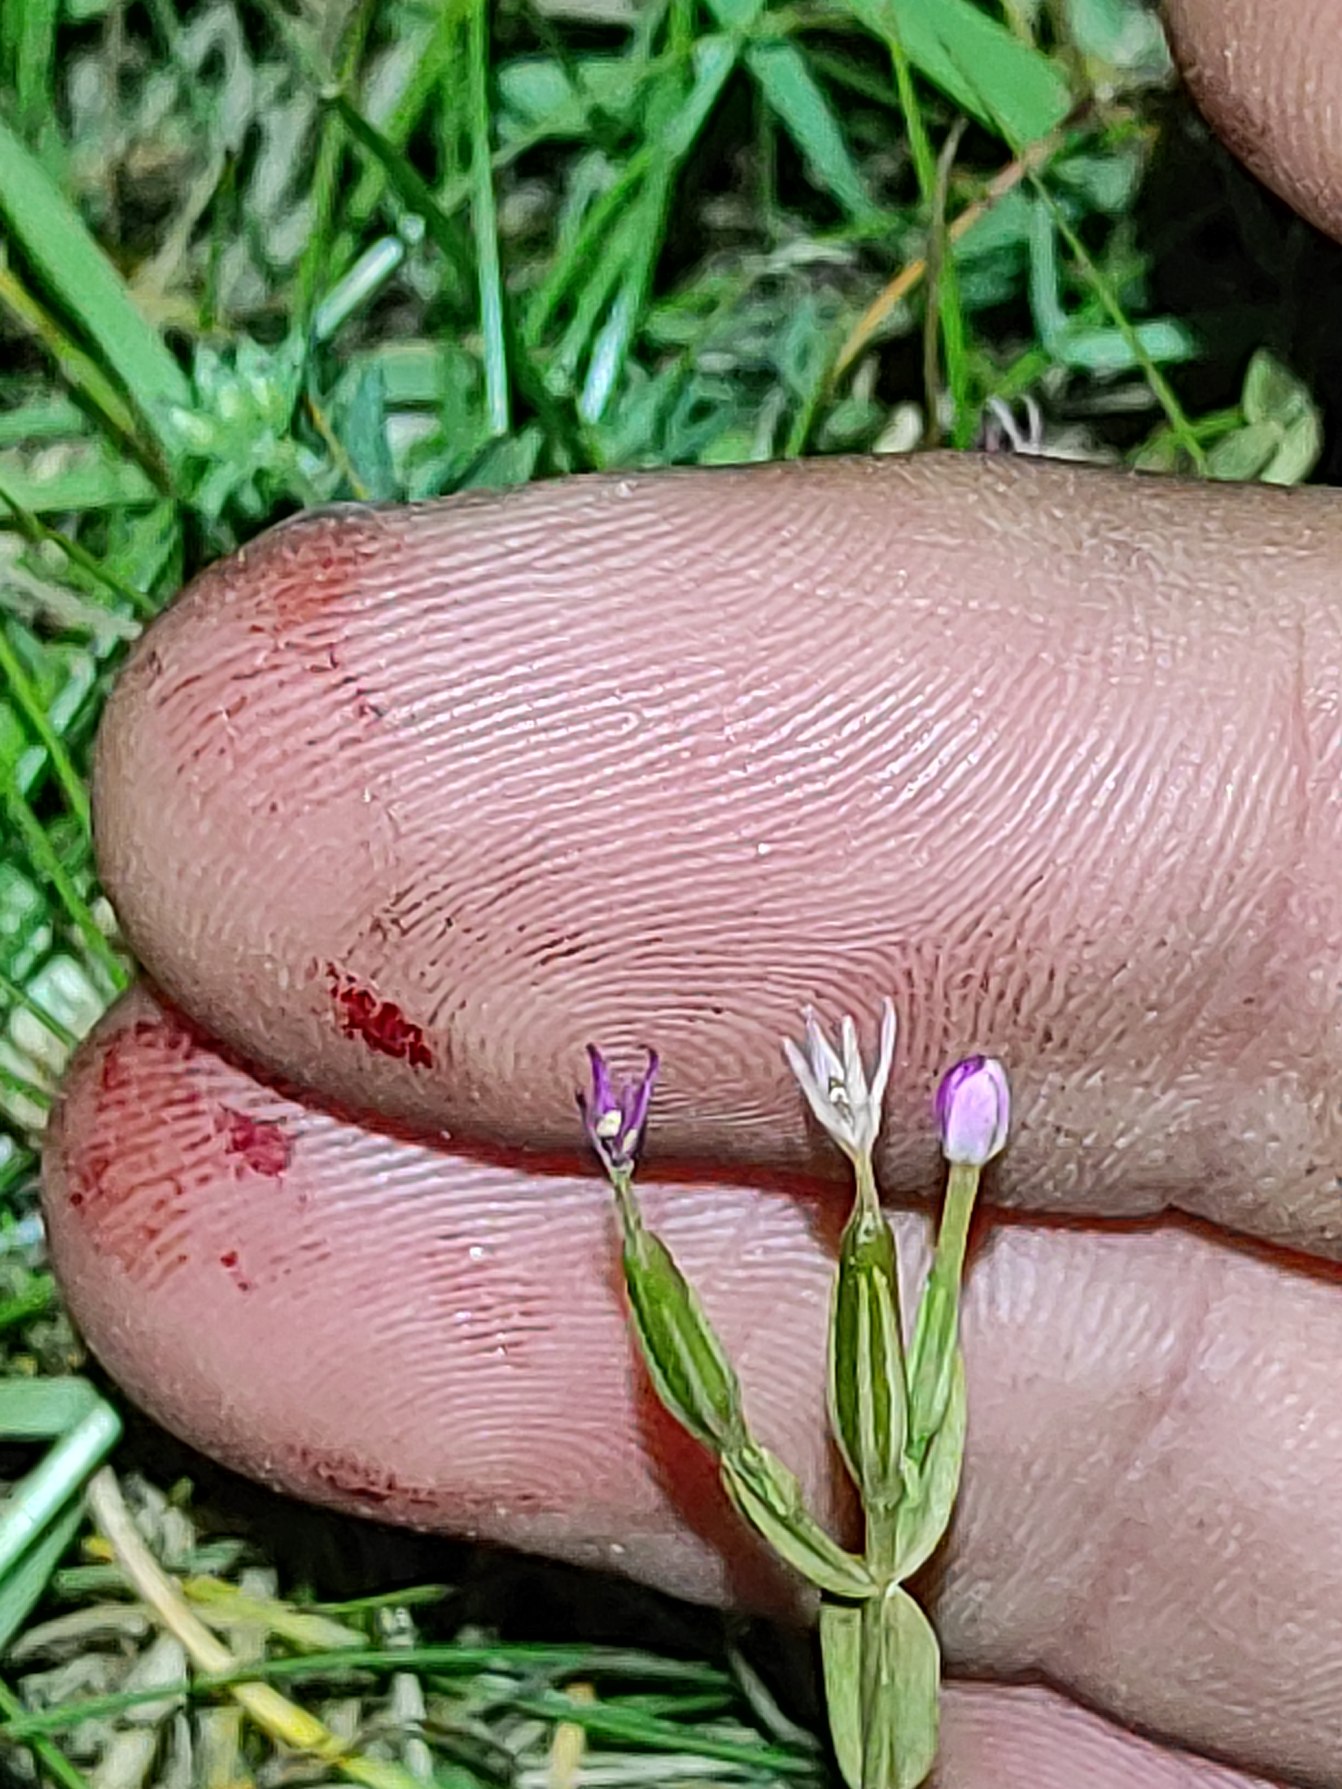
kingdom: Plantae
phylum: Tracheophyta
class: Magnoliopsida
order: Gentianales
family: Gentianaceae
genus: Centaurium
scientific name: Centaurium pulchellum
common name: Liden tusindgylden
